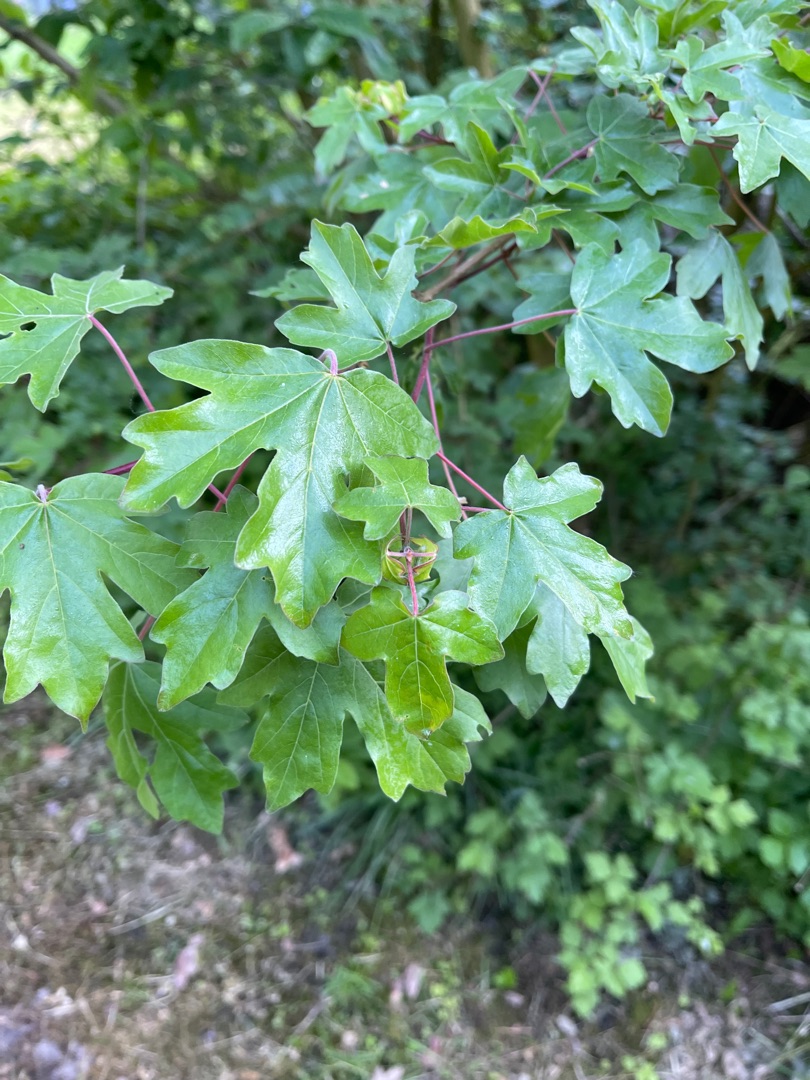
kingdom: Plantae
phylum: Tracheophyta
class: Magnoliopsida
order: Sapindales
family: Sapindaceae
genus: Acer
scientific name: Acer campestre
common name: Navr
